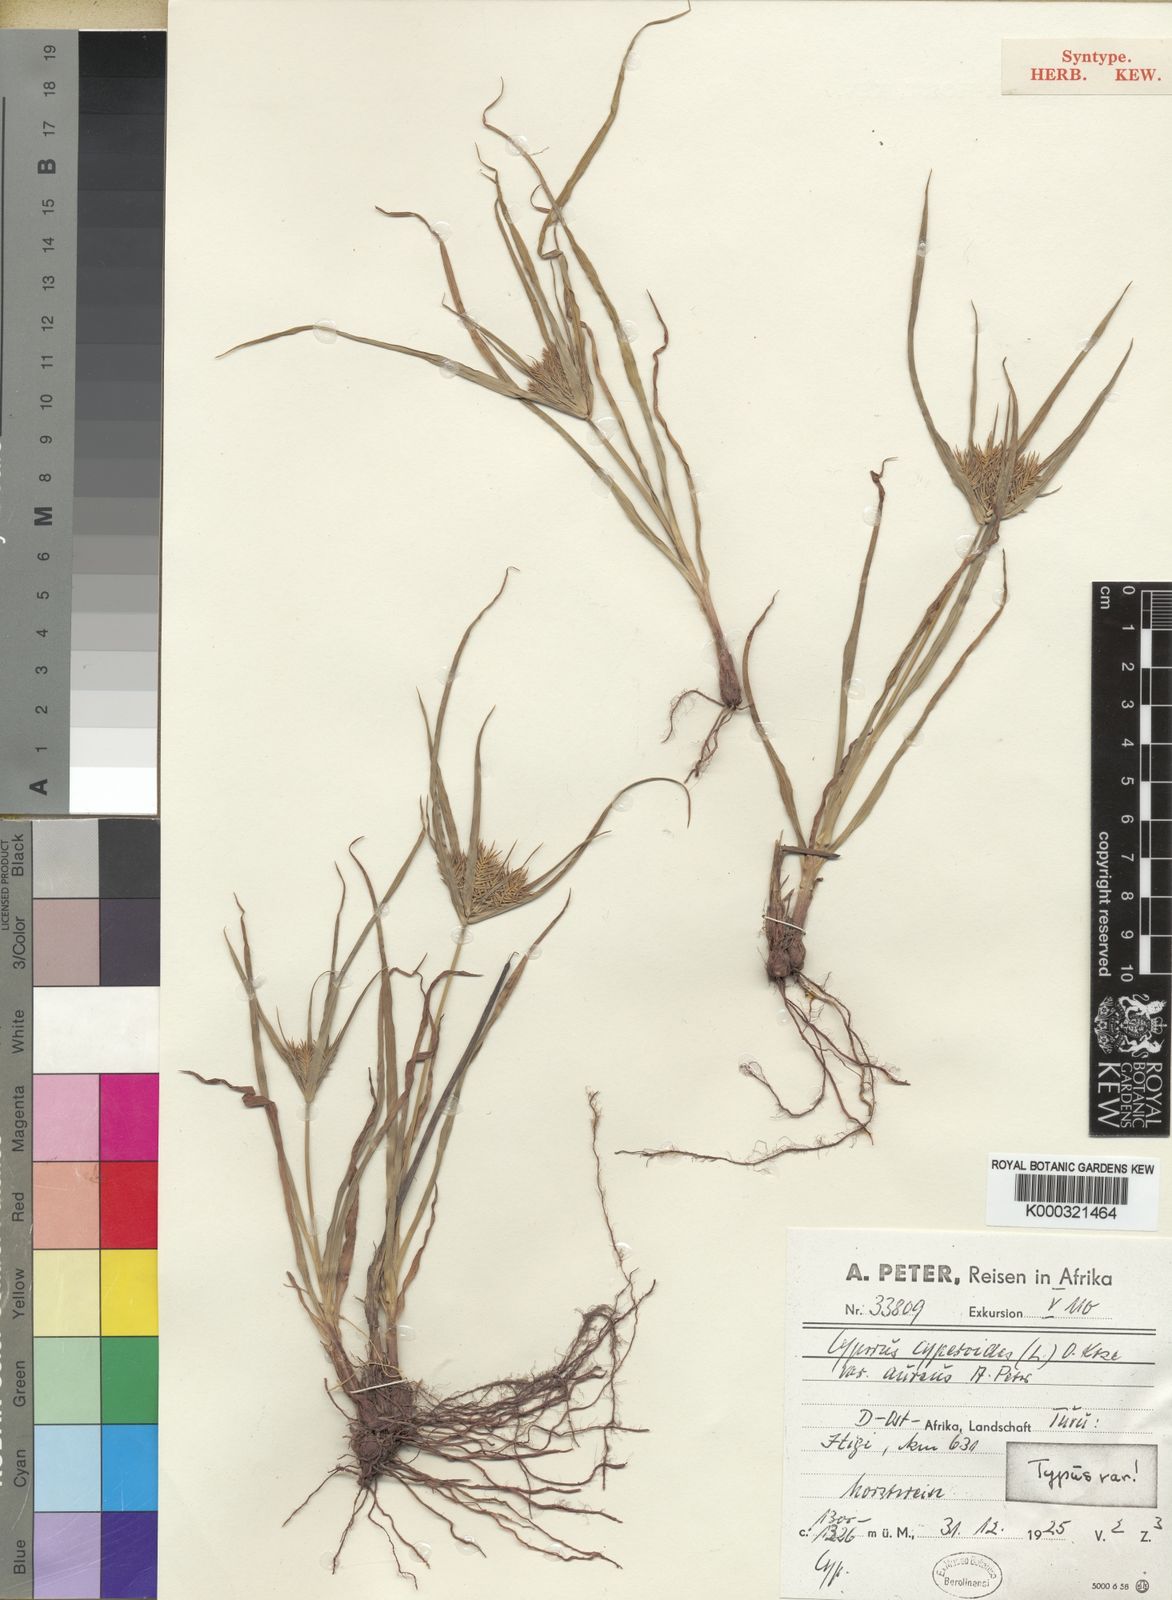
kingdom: Plantae
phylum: Tracheophyta
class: Liliopsida
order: Poales
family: Cyperaceae
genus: Cyperus
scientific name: Cyperus cyperoides
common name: Pacific island flat sedge
